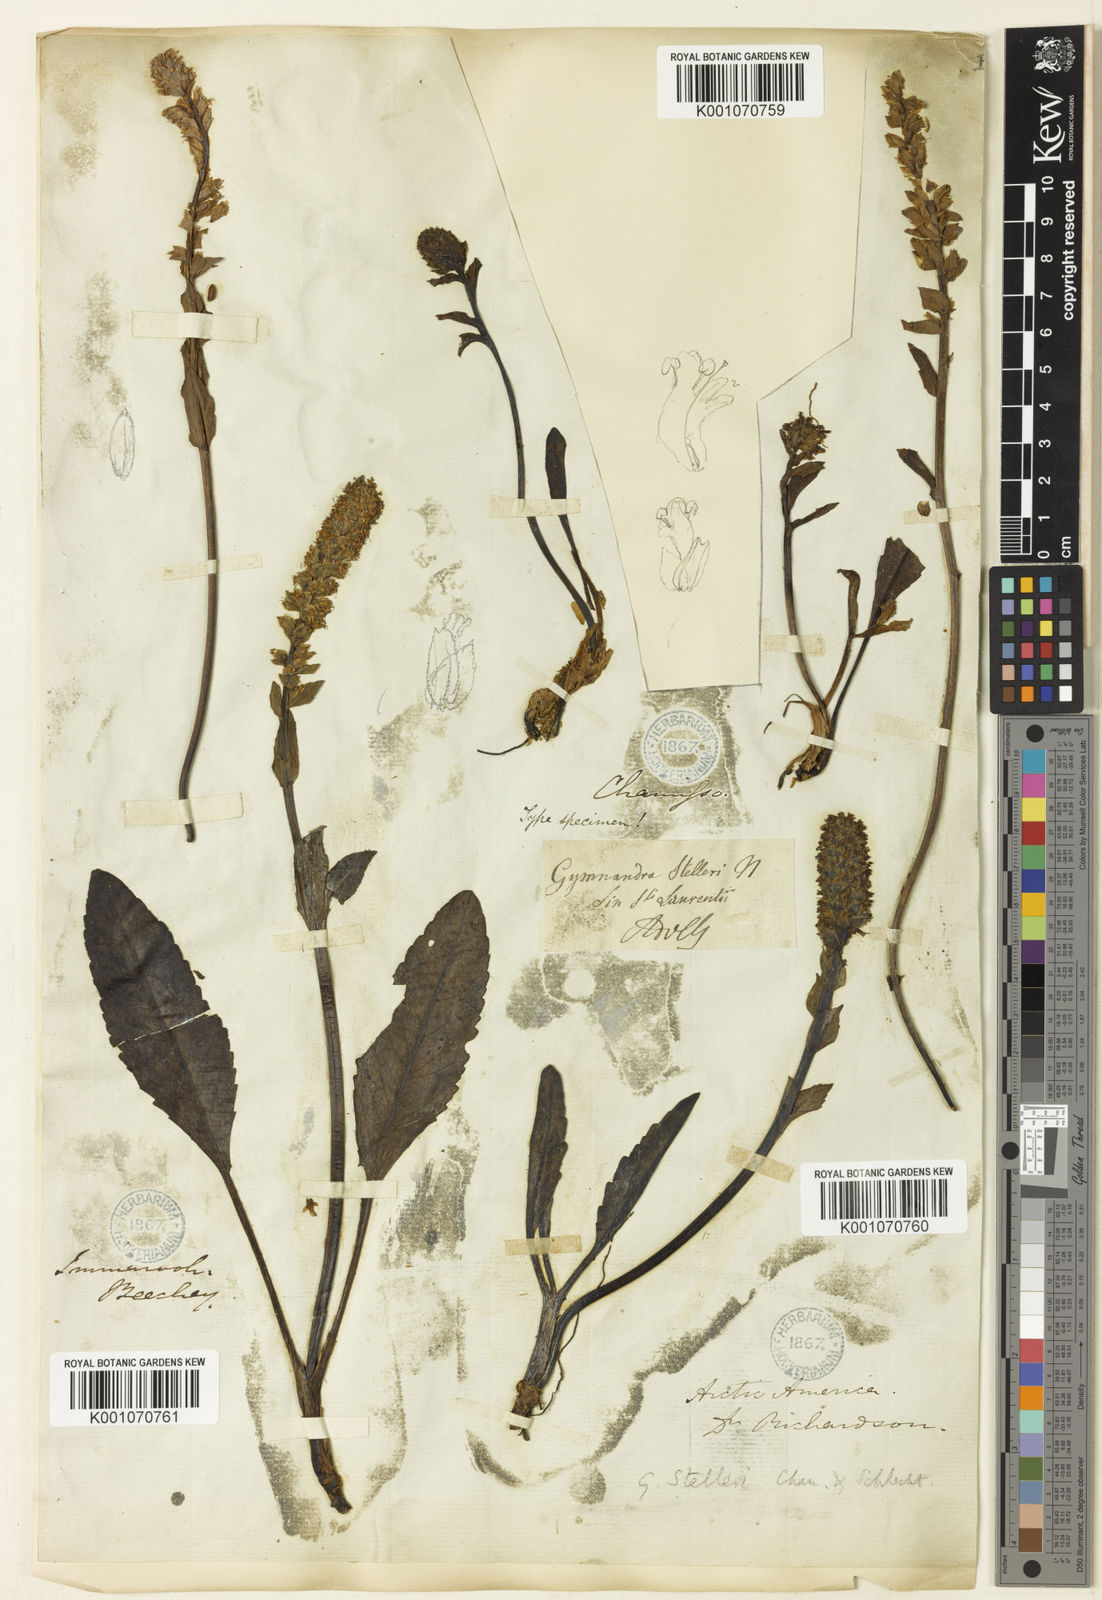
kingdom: Plantae
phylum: Tracheophyta
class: Magnoliopsida
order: Lamiales
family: Plantaginaceae
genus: Lagotis
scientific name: Lagotis glauca
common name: Glaucous weaselsnout
